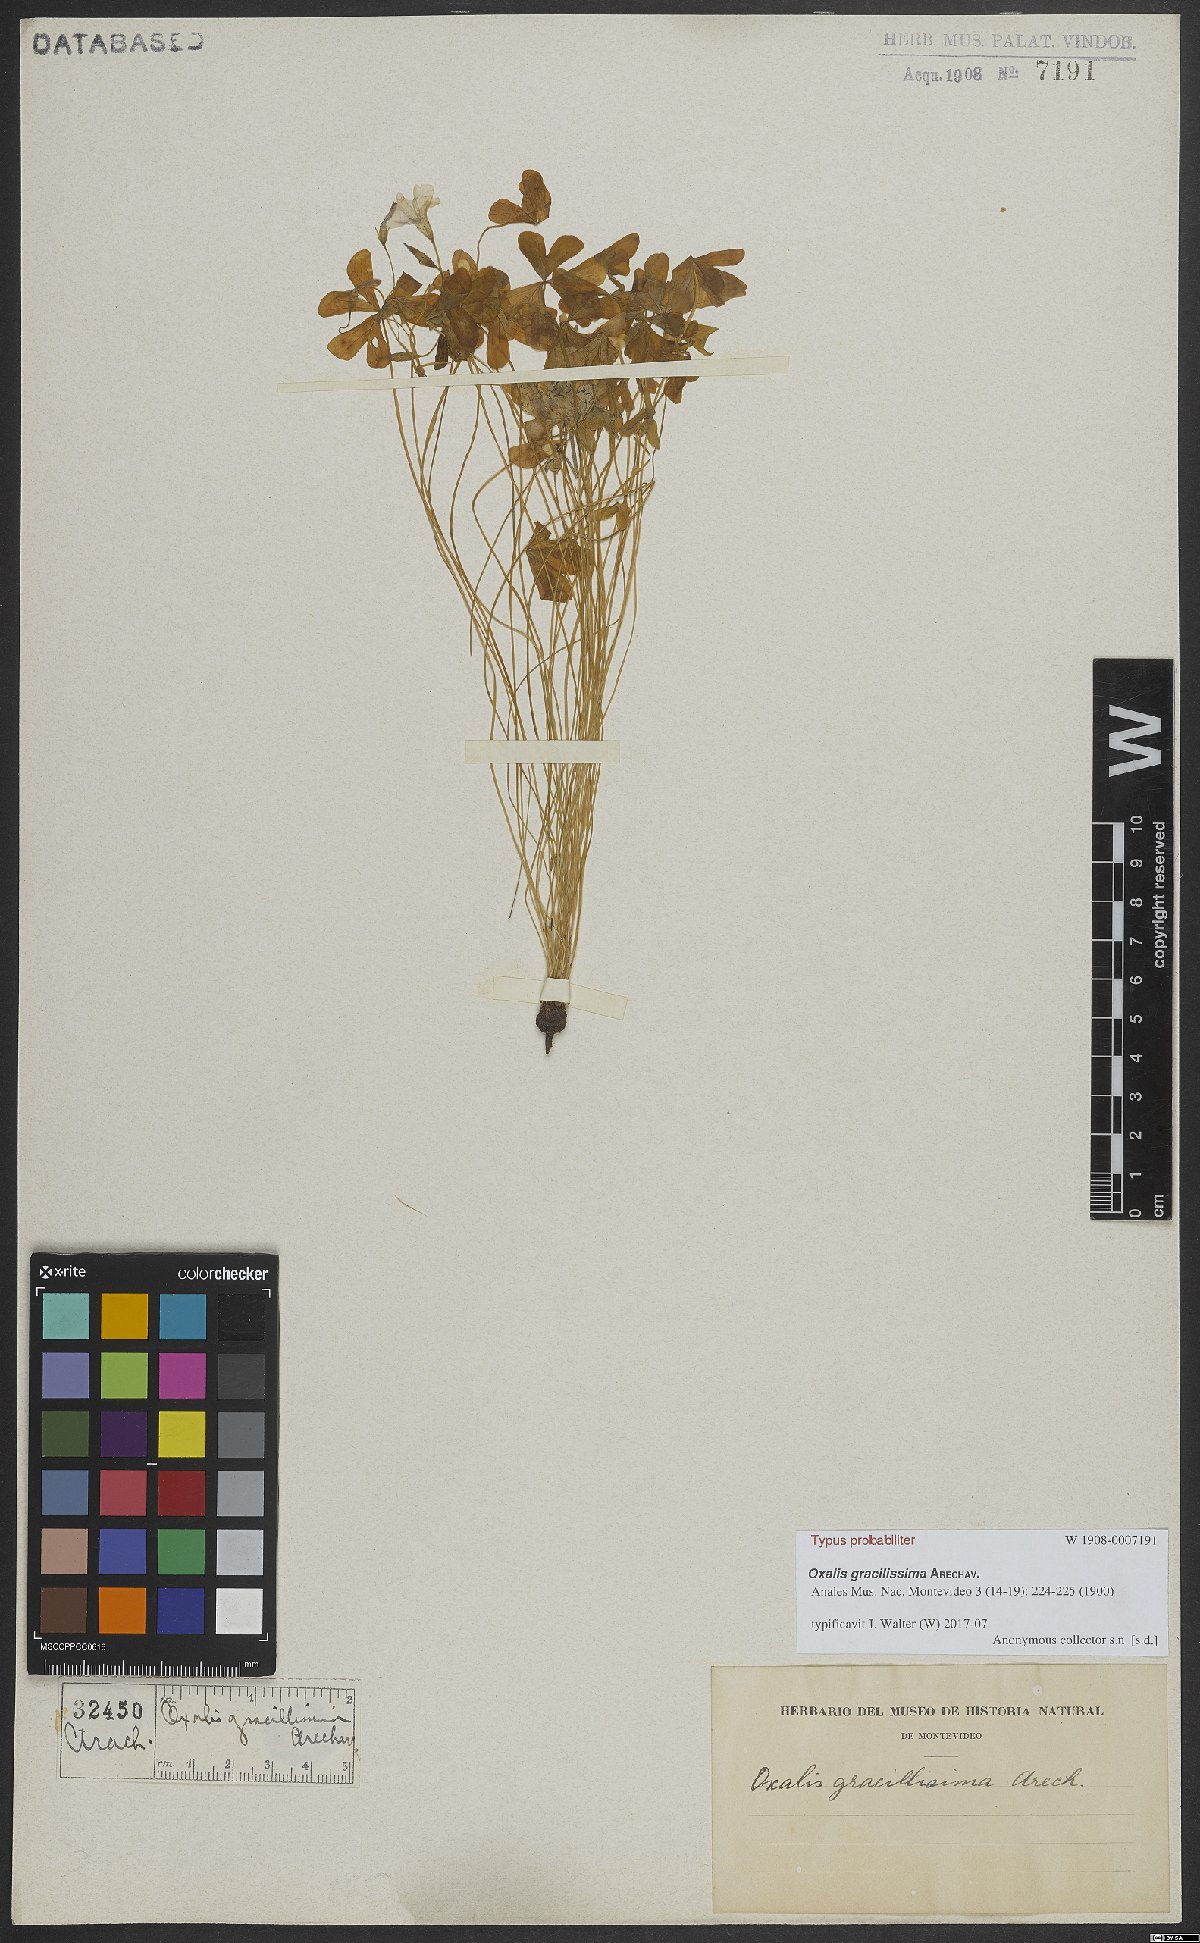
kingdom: Plantae
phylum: Tracheophyta
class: Magnoliopsida
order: Oxalidales
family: Oxalidaceae
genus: Oxalis
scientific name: Oxalis lasiopetala
